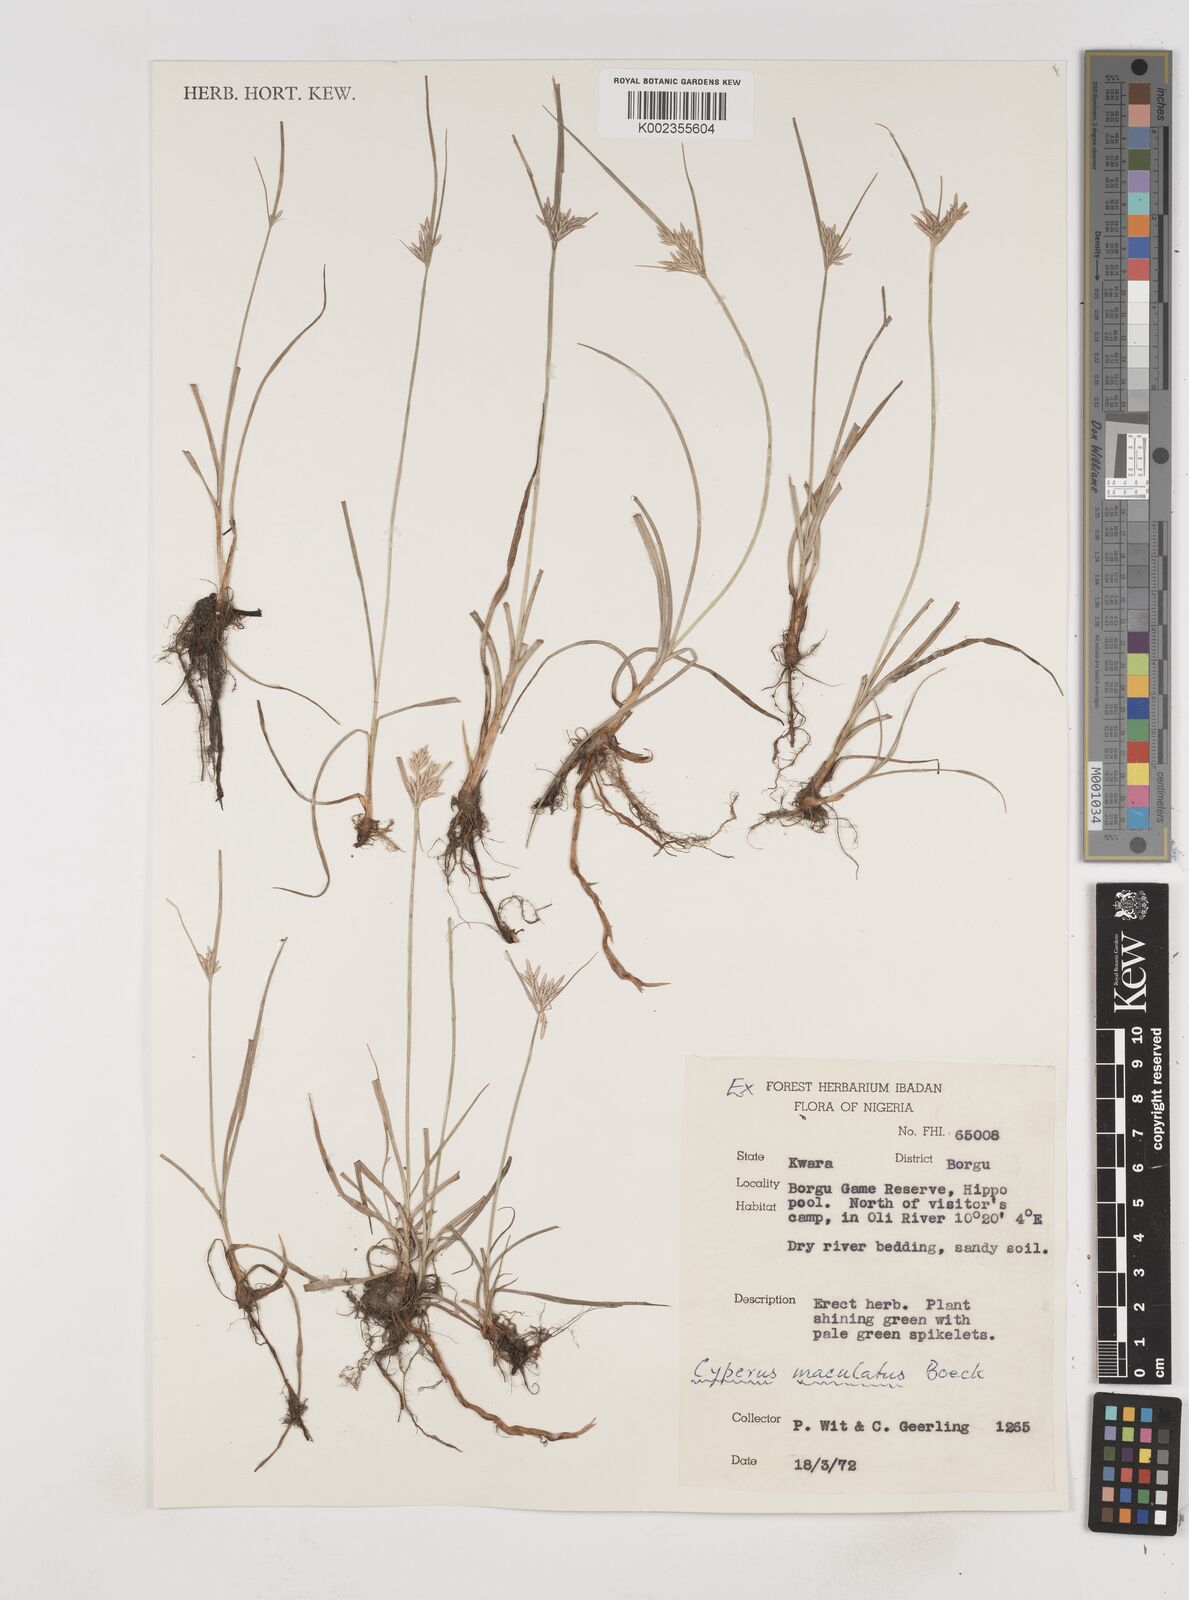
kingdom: Plantae
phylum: Tracheophyta
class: Liliopsida
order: Poales
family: Cyperaceae
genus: Cyperus
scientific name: Cyperus maculatus
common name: Maculated sedge
